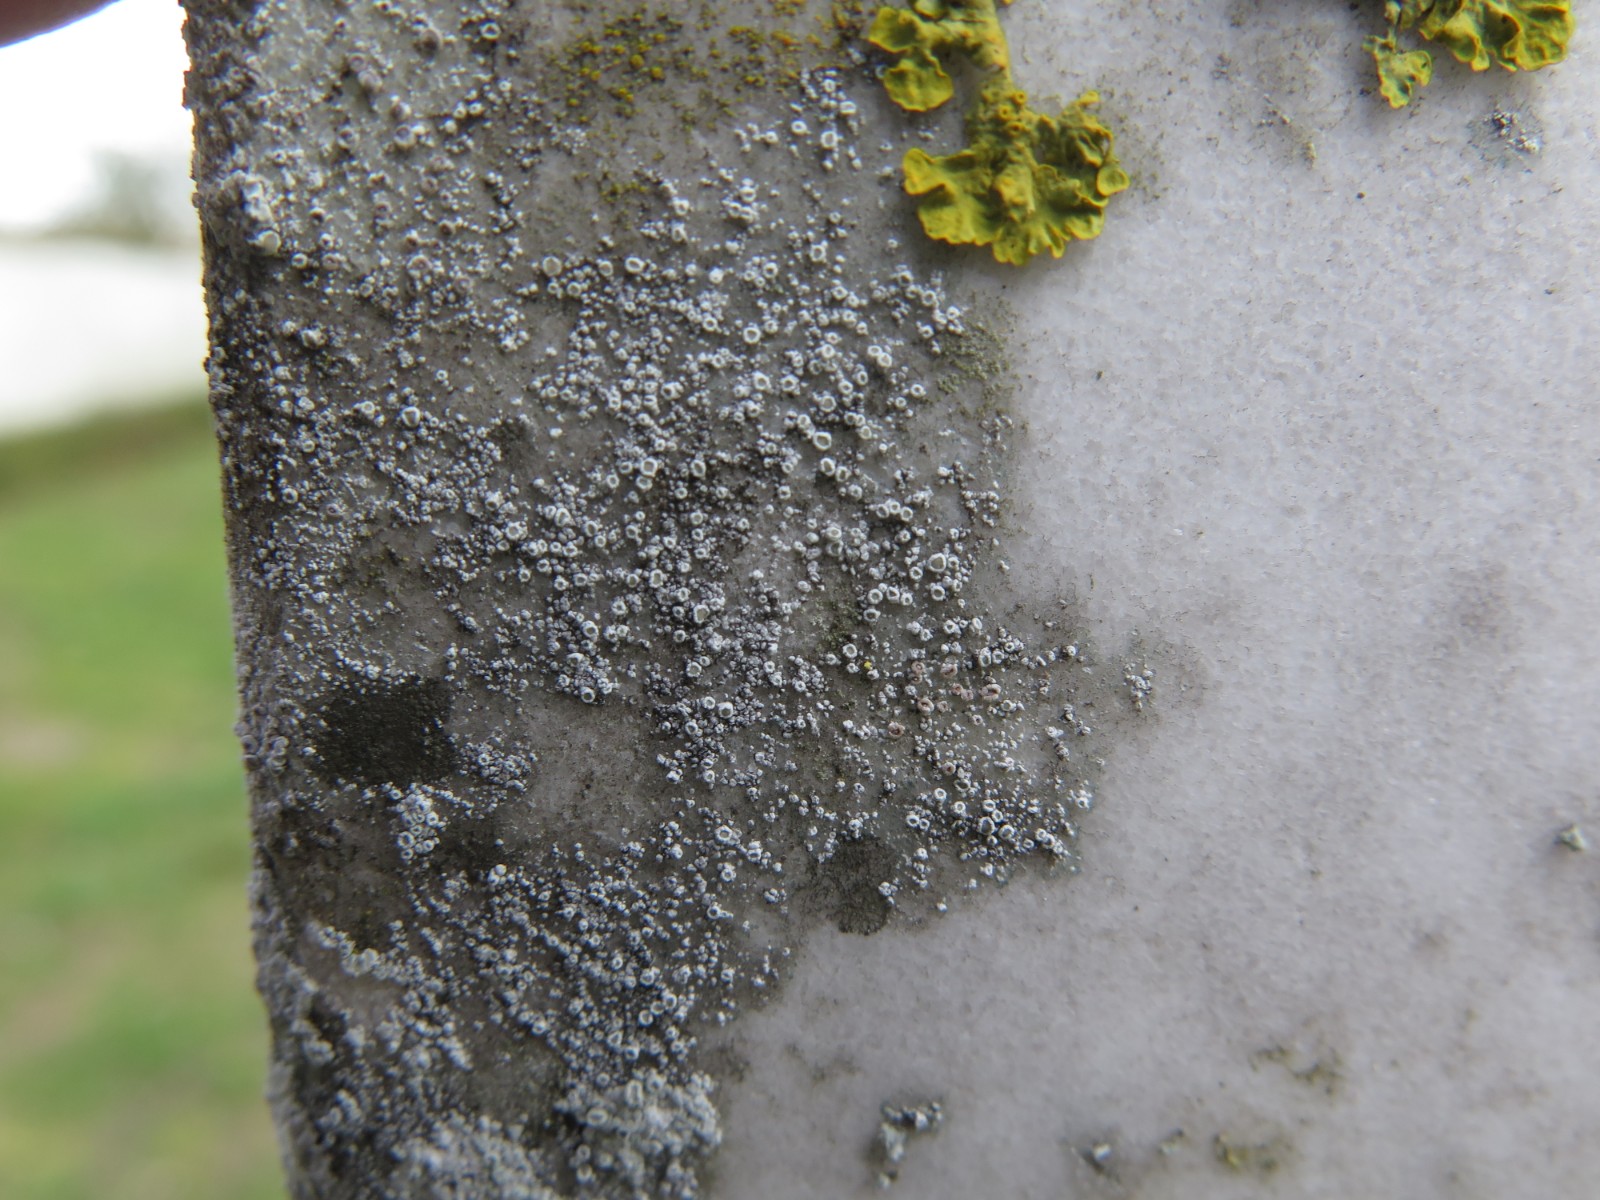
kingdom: Fungi
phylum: Ascomycota
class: Lecanoromycetes
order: Lecanorales
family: Lecanoraceae
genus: Polyozosia
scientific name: Polyozosia dispersa
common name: spredt kantskivelav
